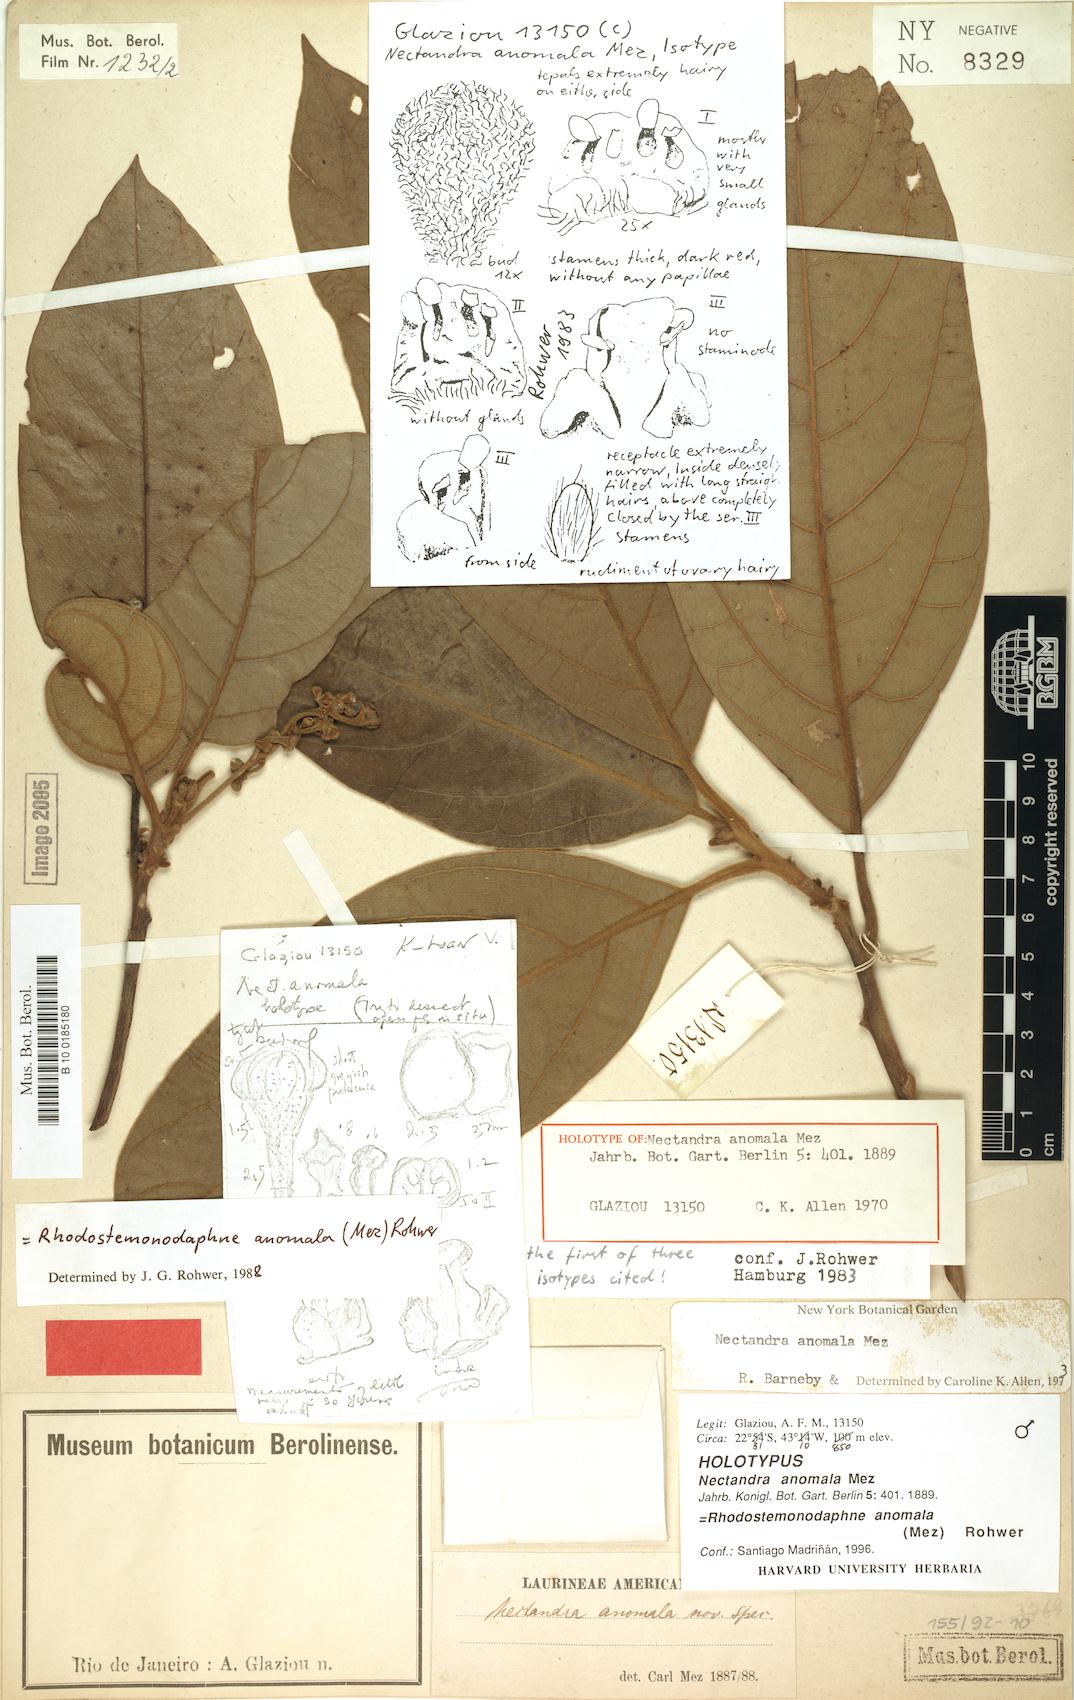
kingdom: Plantae
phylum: Tracheophyta
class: Magnoliopsida
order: Laurales
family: Lauraceae
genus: Pleurothyrium
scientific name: Pleurothyrium amplifolium
